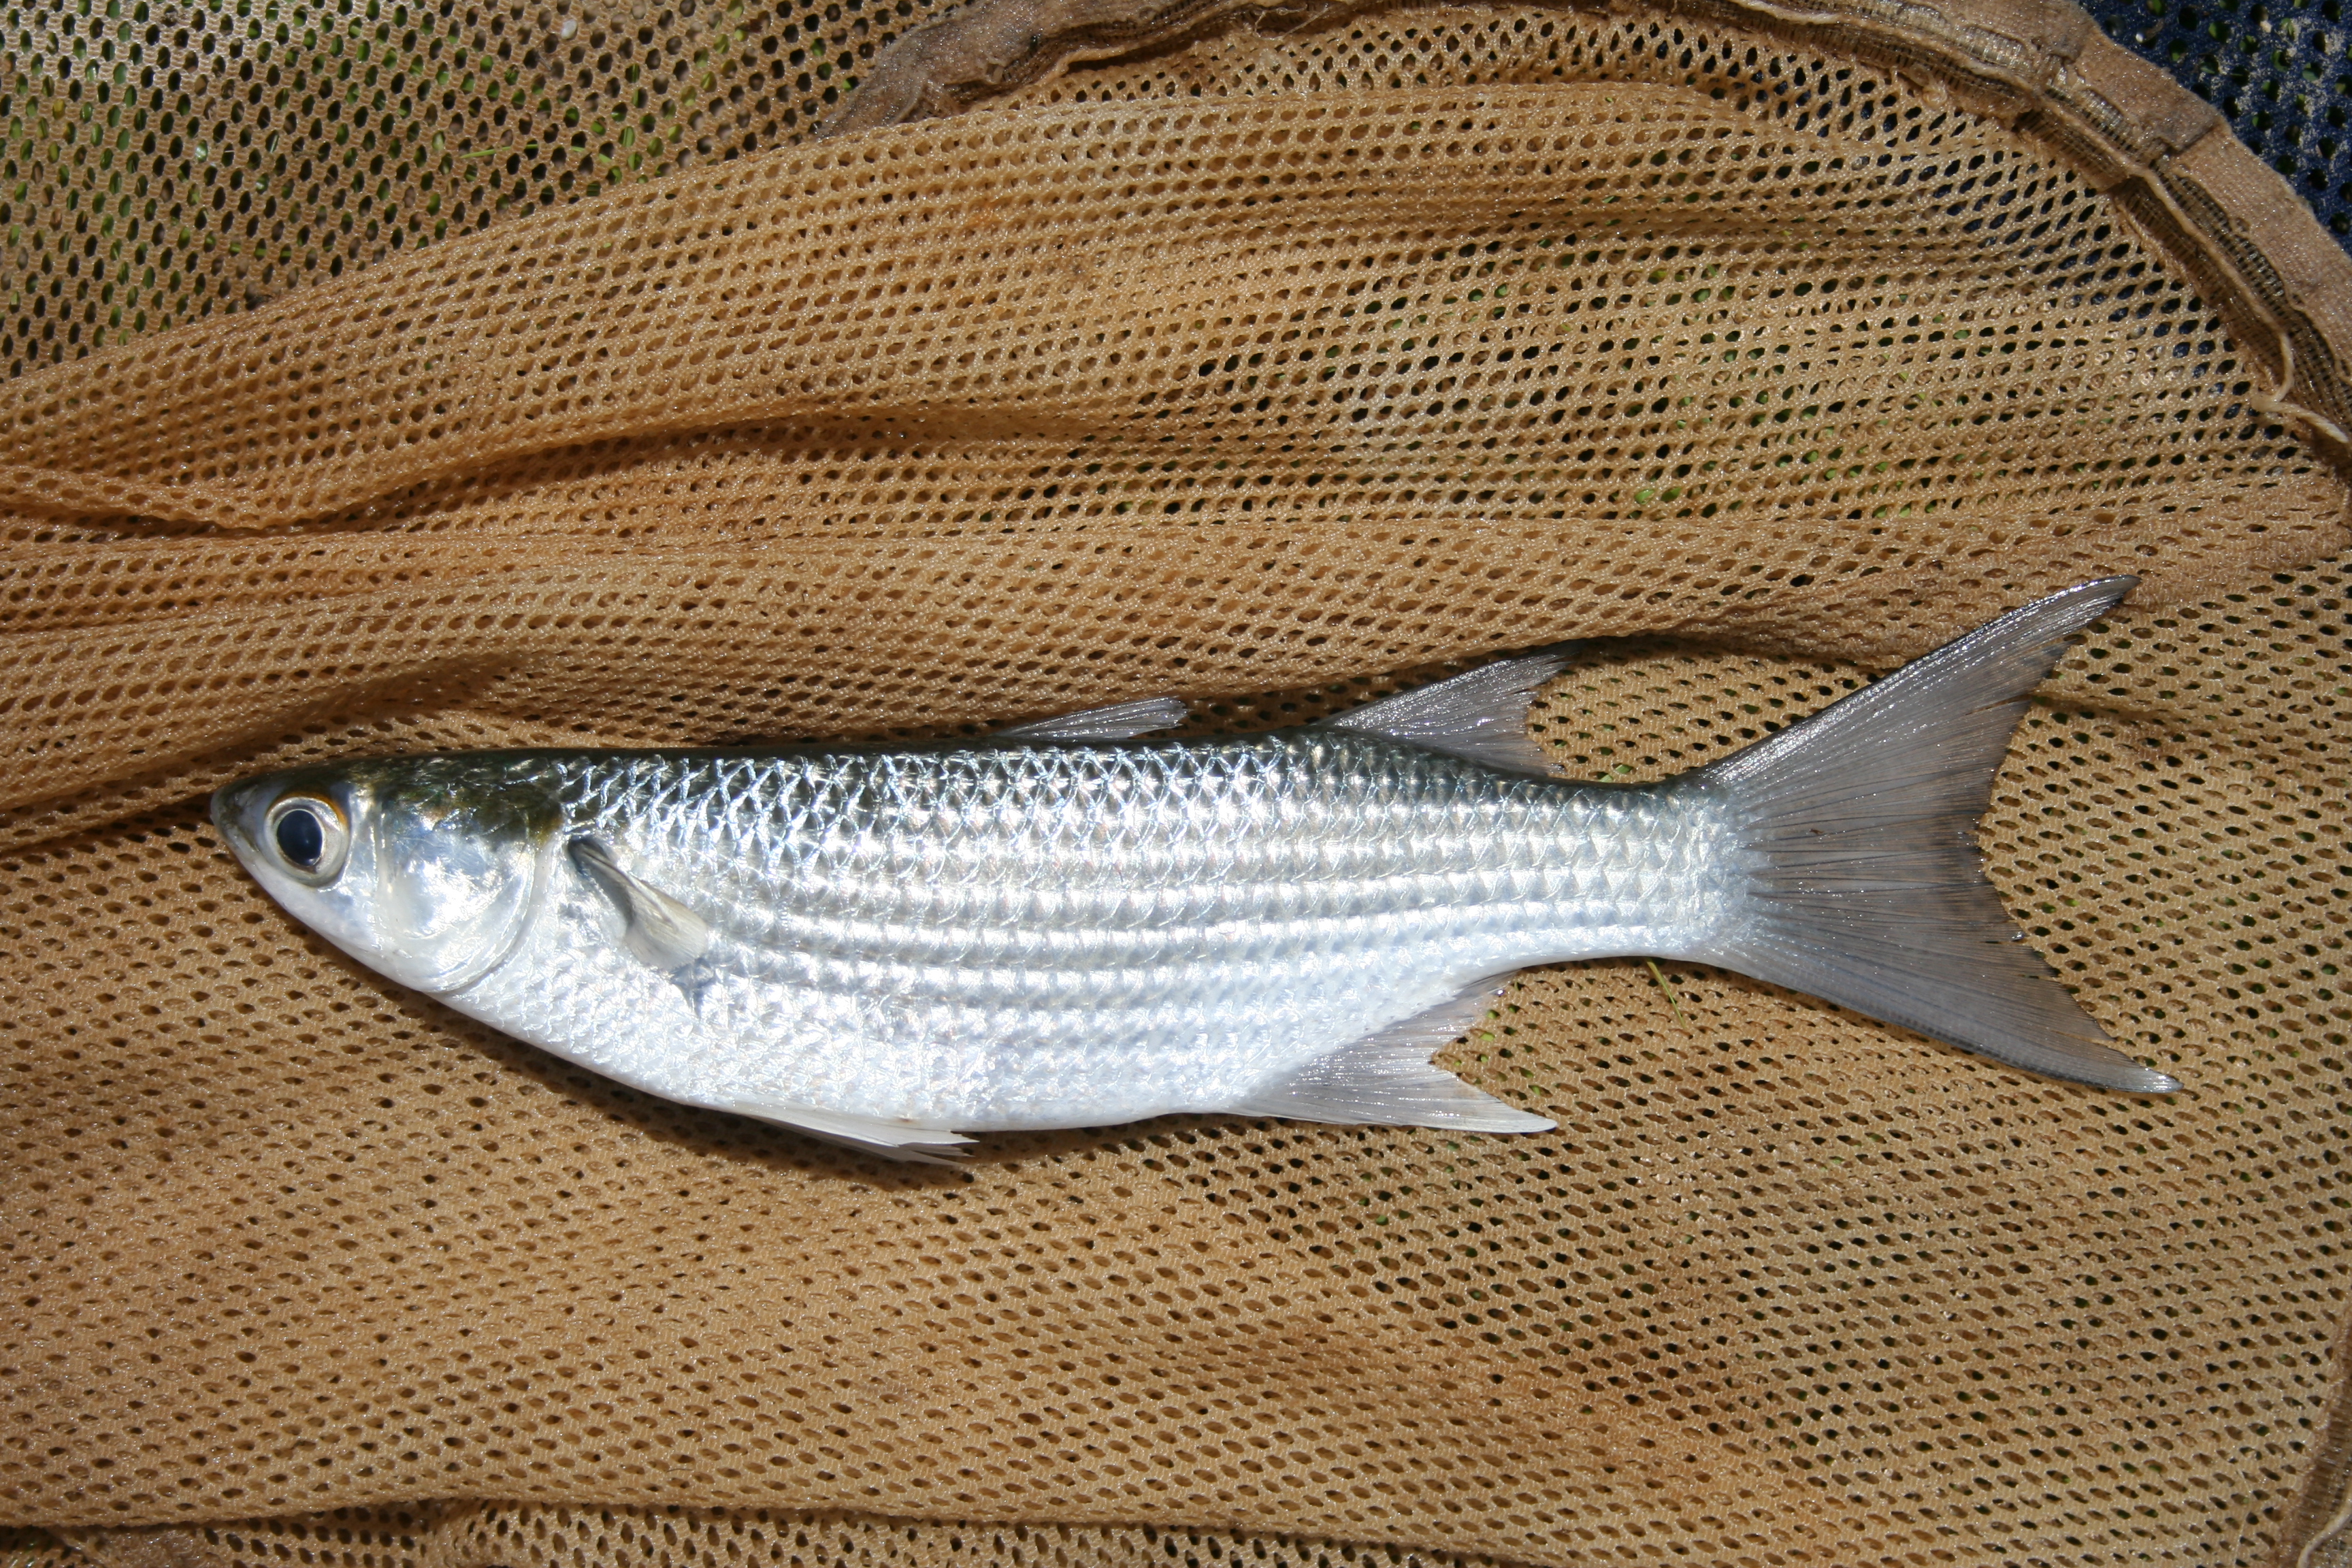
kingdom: Animalia
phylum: Chordata
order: Mugiliformes
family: Mugilidae
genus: Liza
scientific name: Liza
